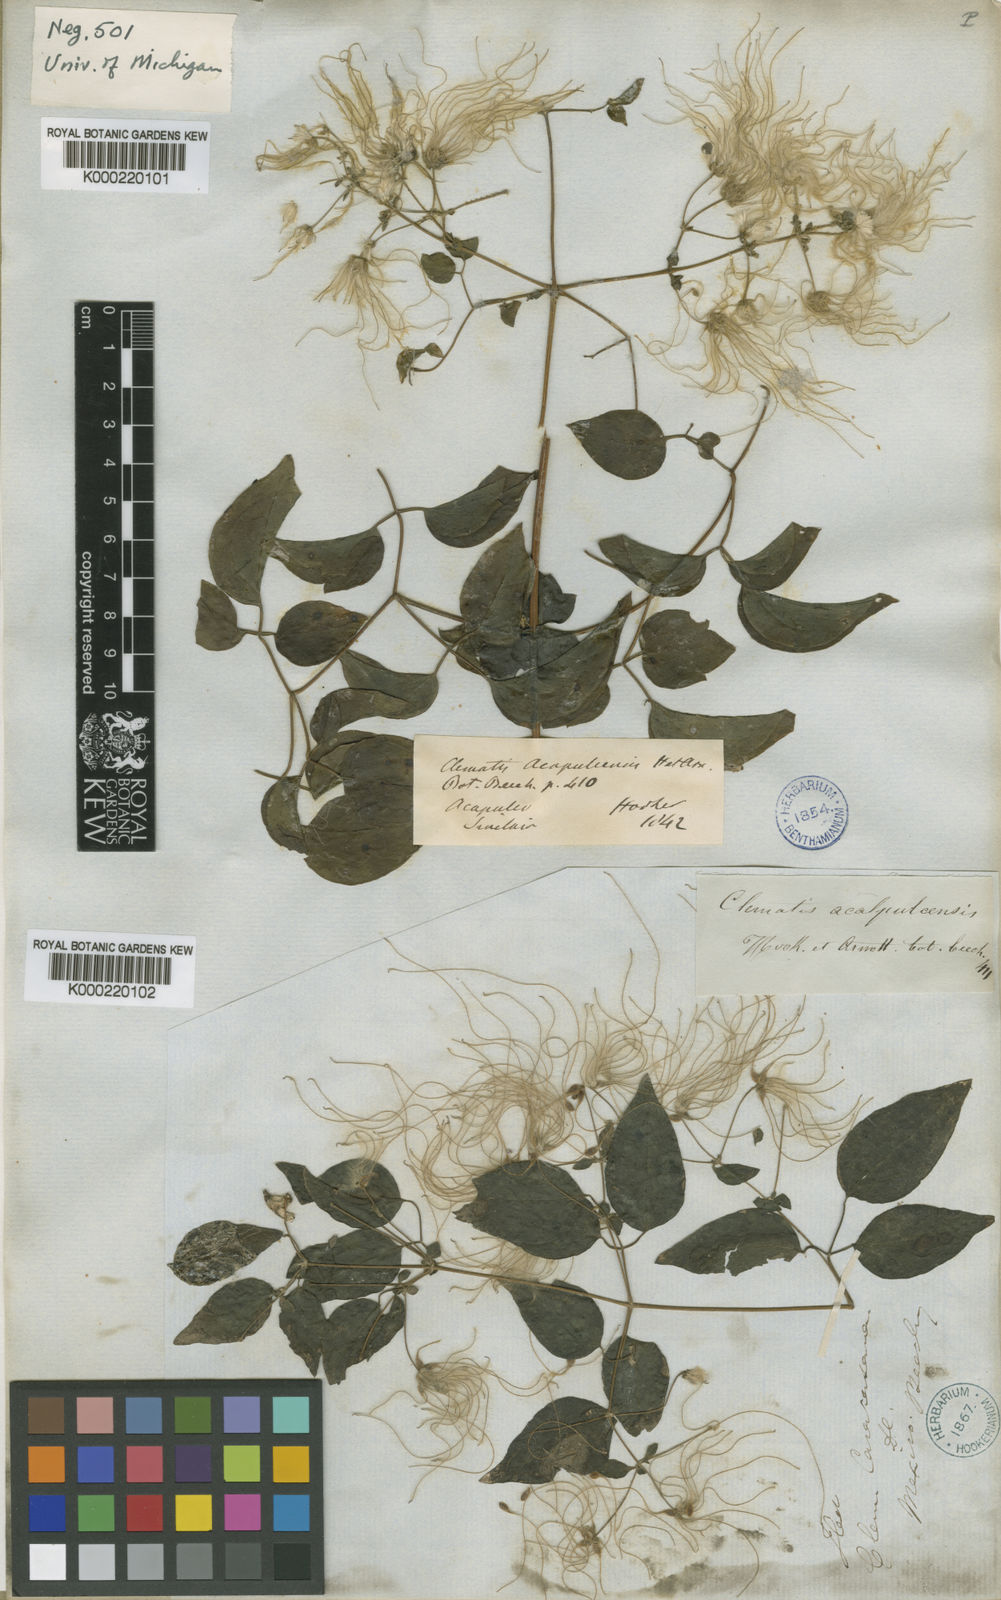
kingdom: Plantae
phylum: Tracheophyta
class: Magnoliopsida
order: Ranunculales
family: Ranunculaceae
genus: Clematis
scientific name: Clematis acapulcensis
